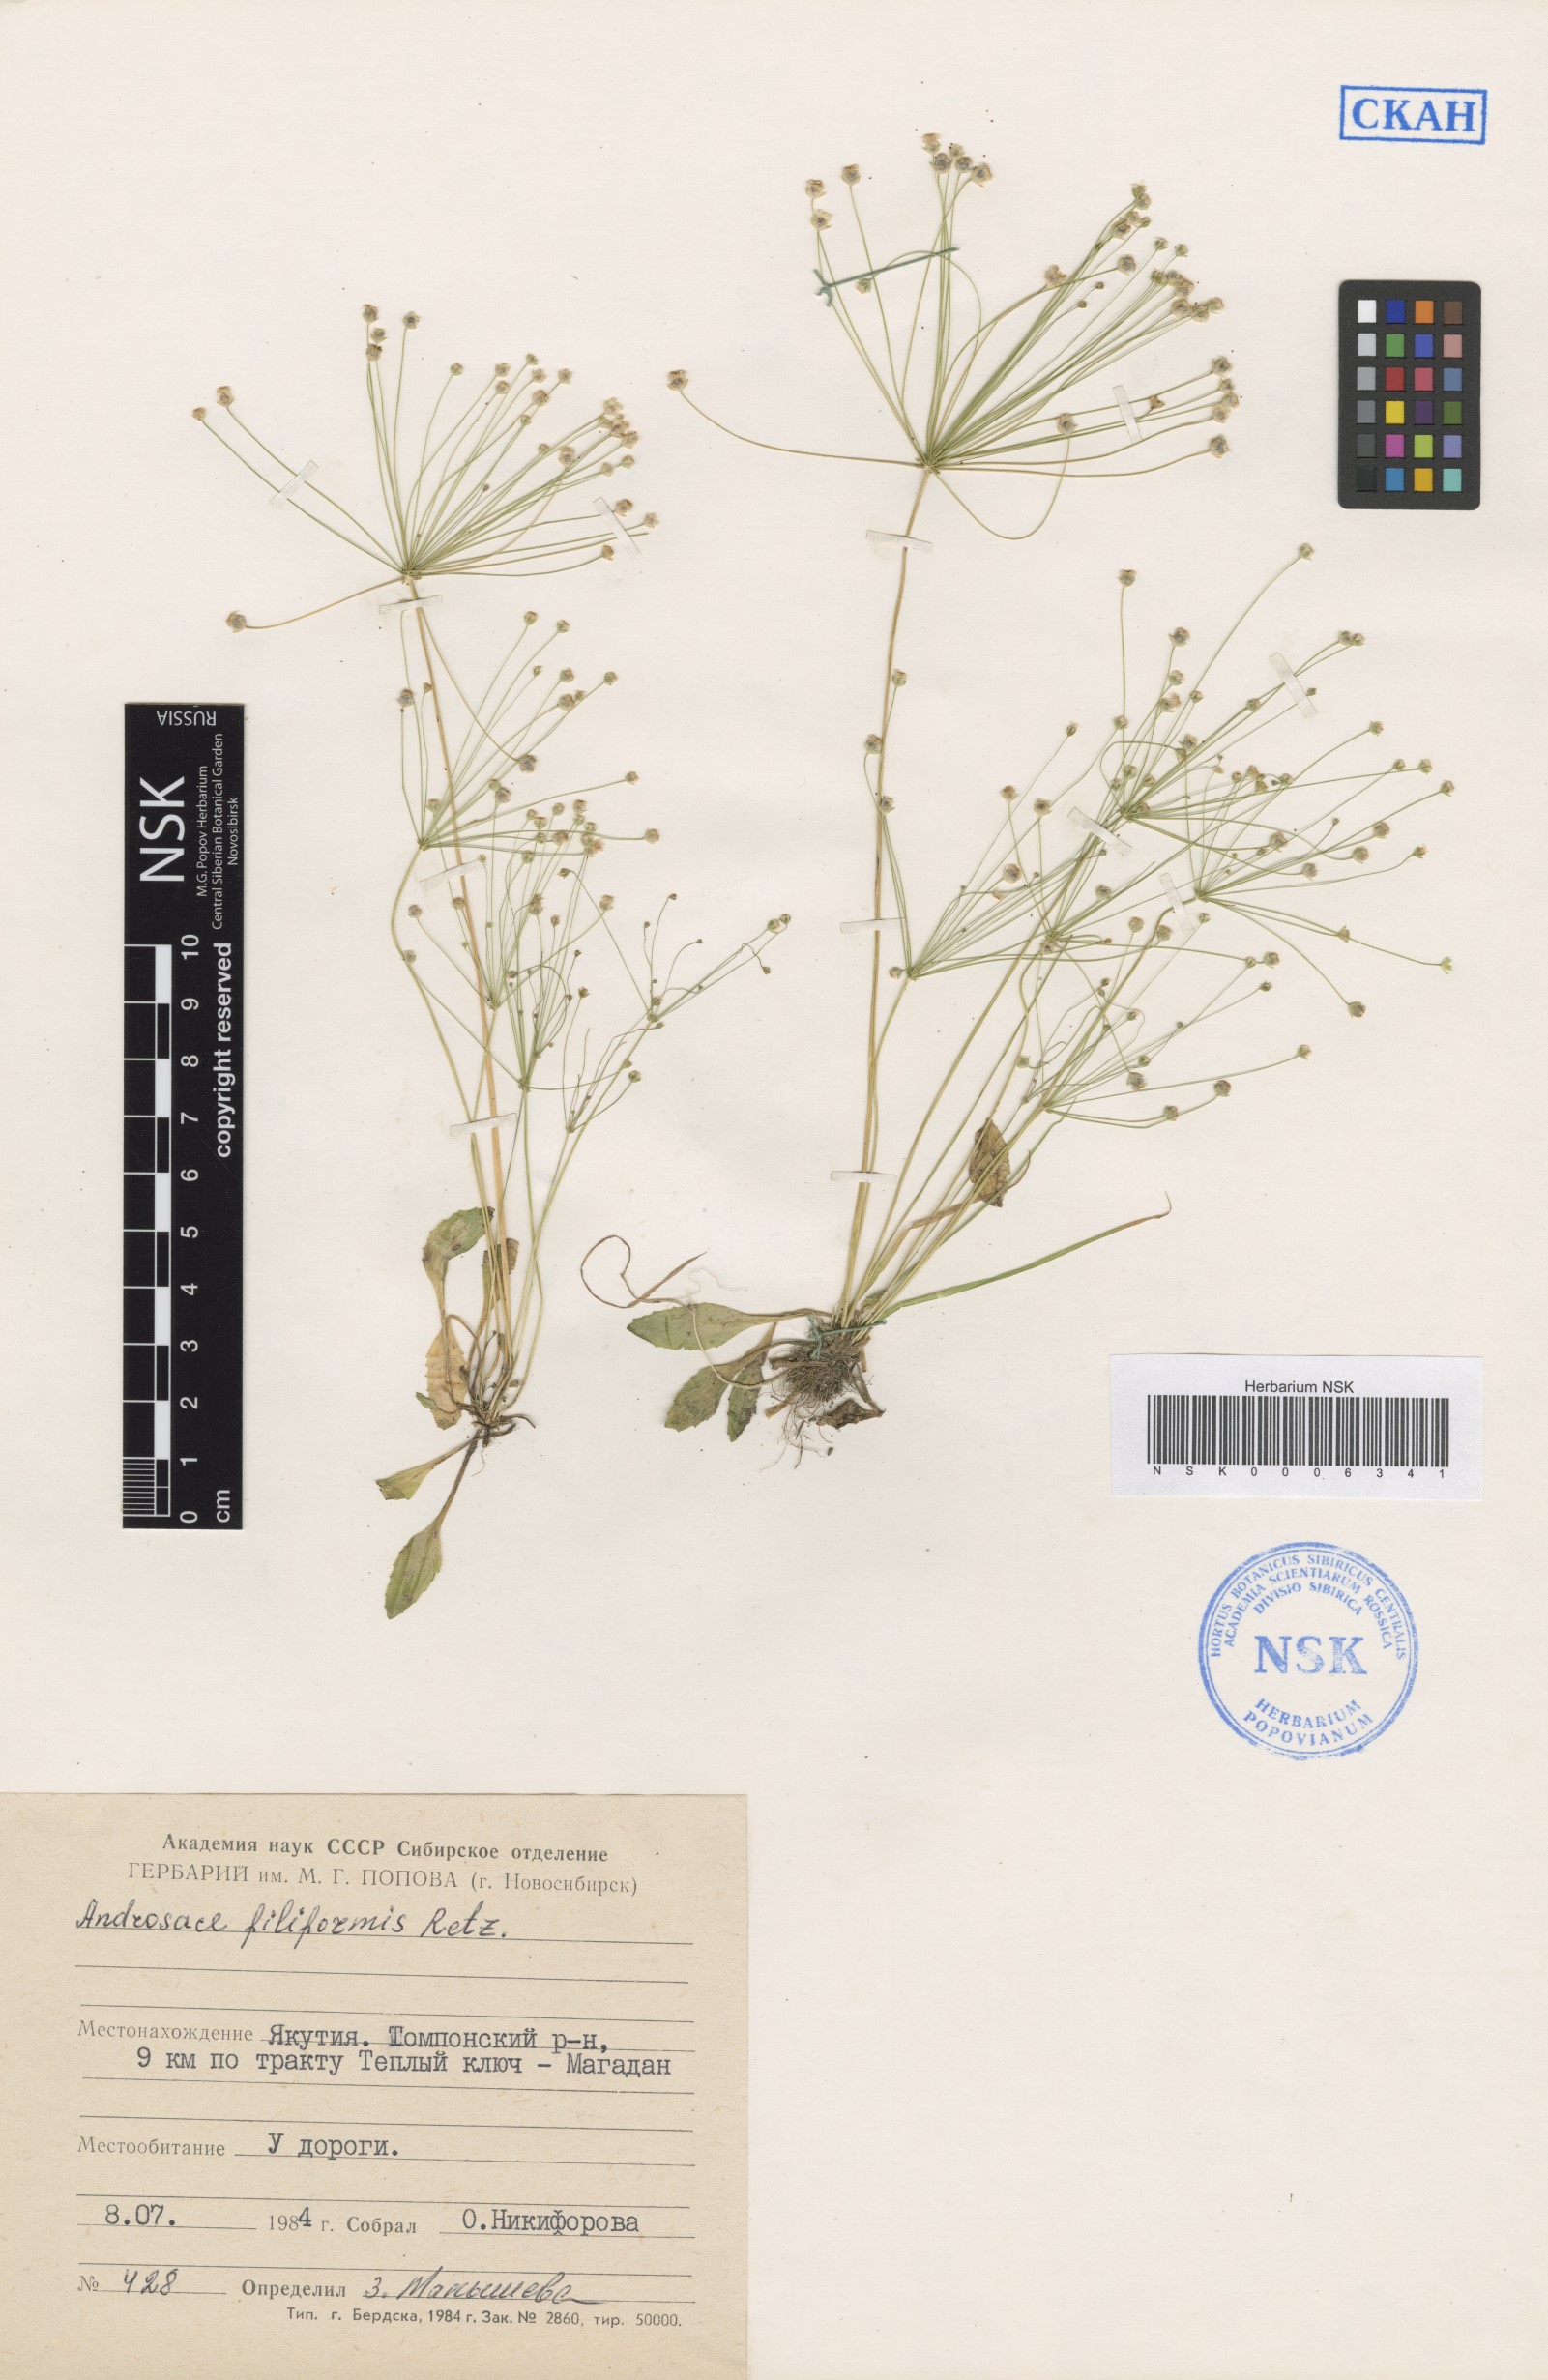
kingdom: Plantae
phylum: Tracheophyta
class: Magnoliopsida
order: Ericales
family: Primulaceae
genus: Androsace
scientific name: Androsace filiformis
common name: Filiform rock jasmine
